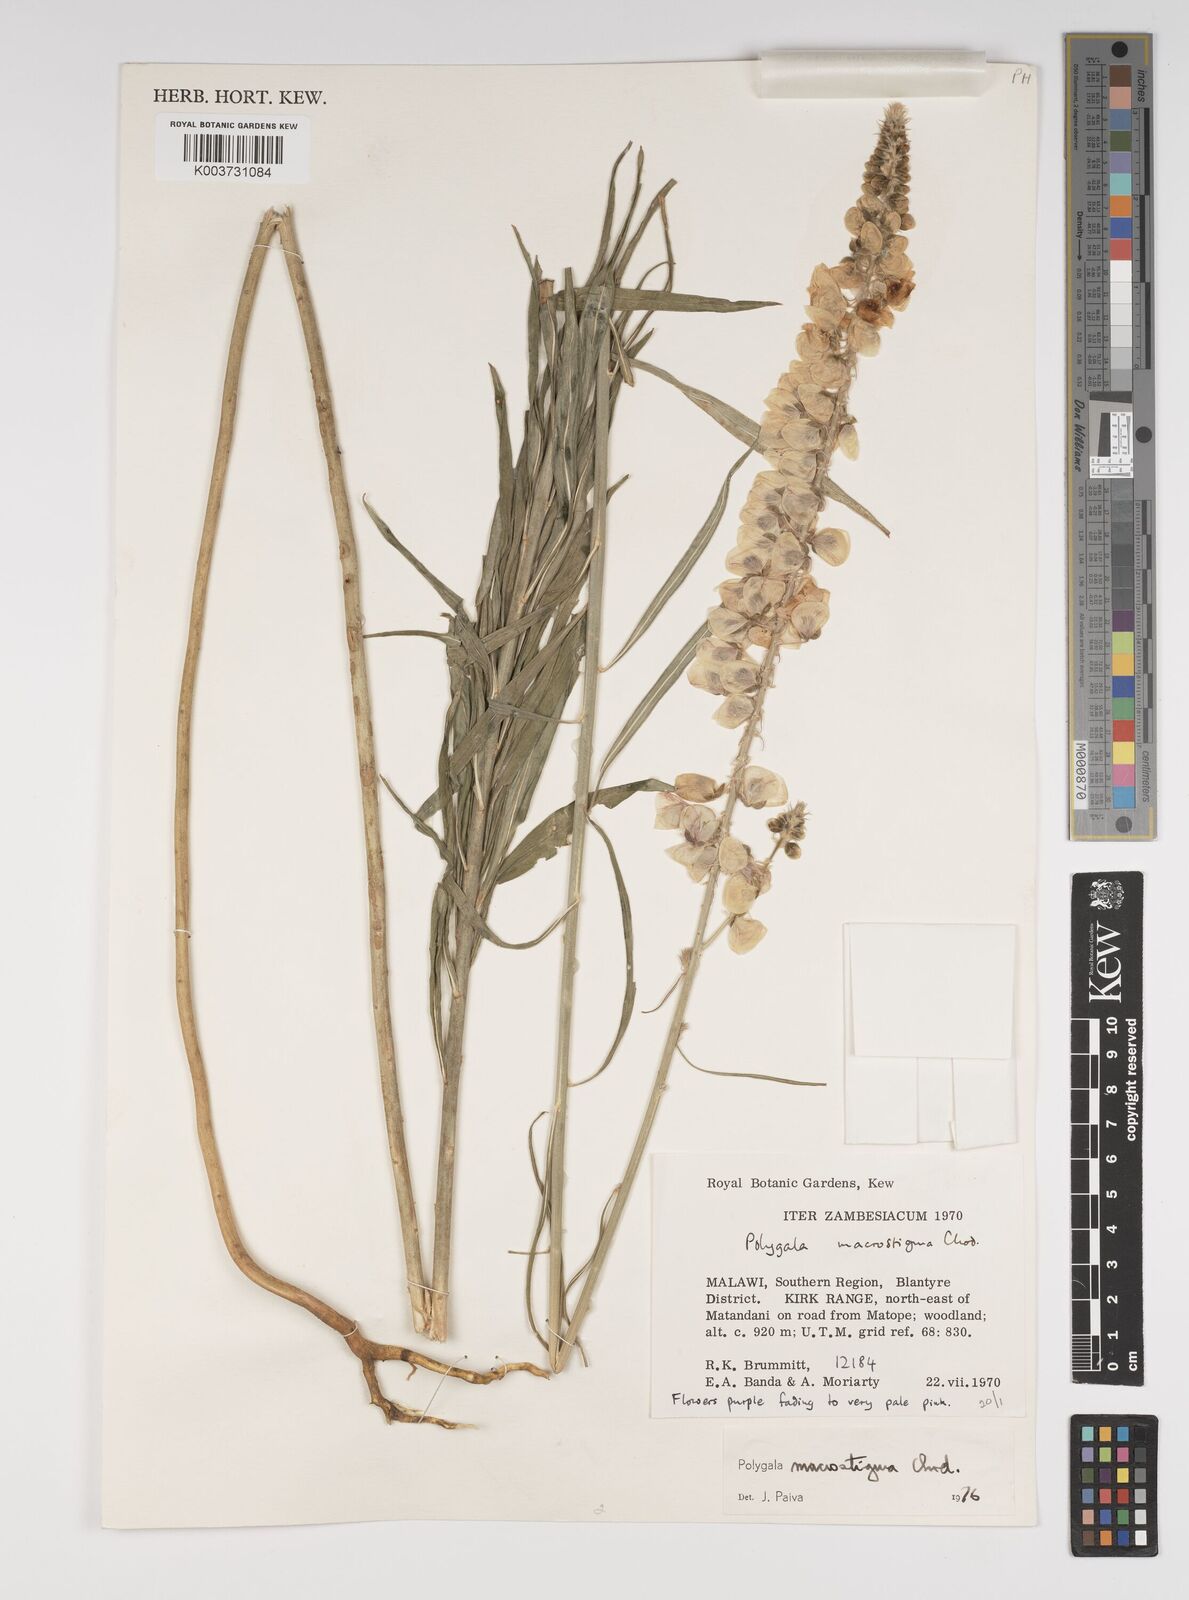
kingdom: Plantae
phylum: Tracheophyta
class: Magnoliopsida
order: Fabales
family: Polygalaceae
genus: Polygala
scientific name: Polygala macrostigma
